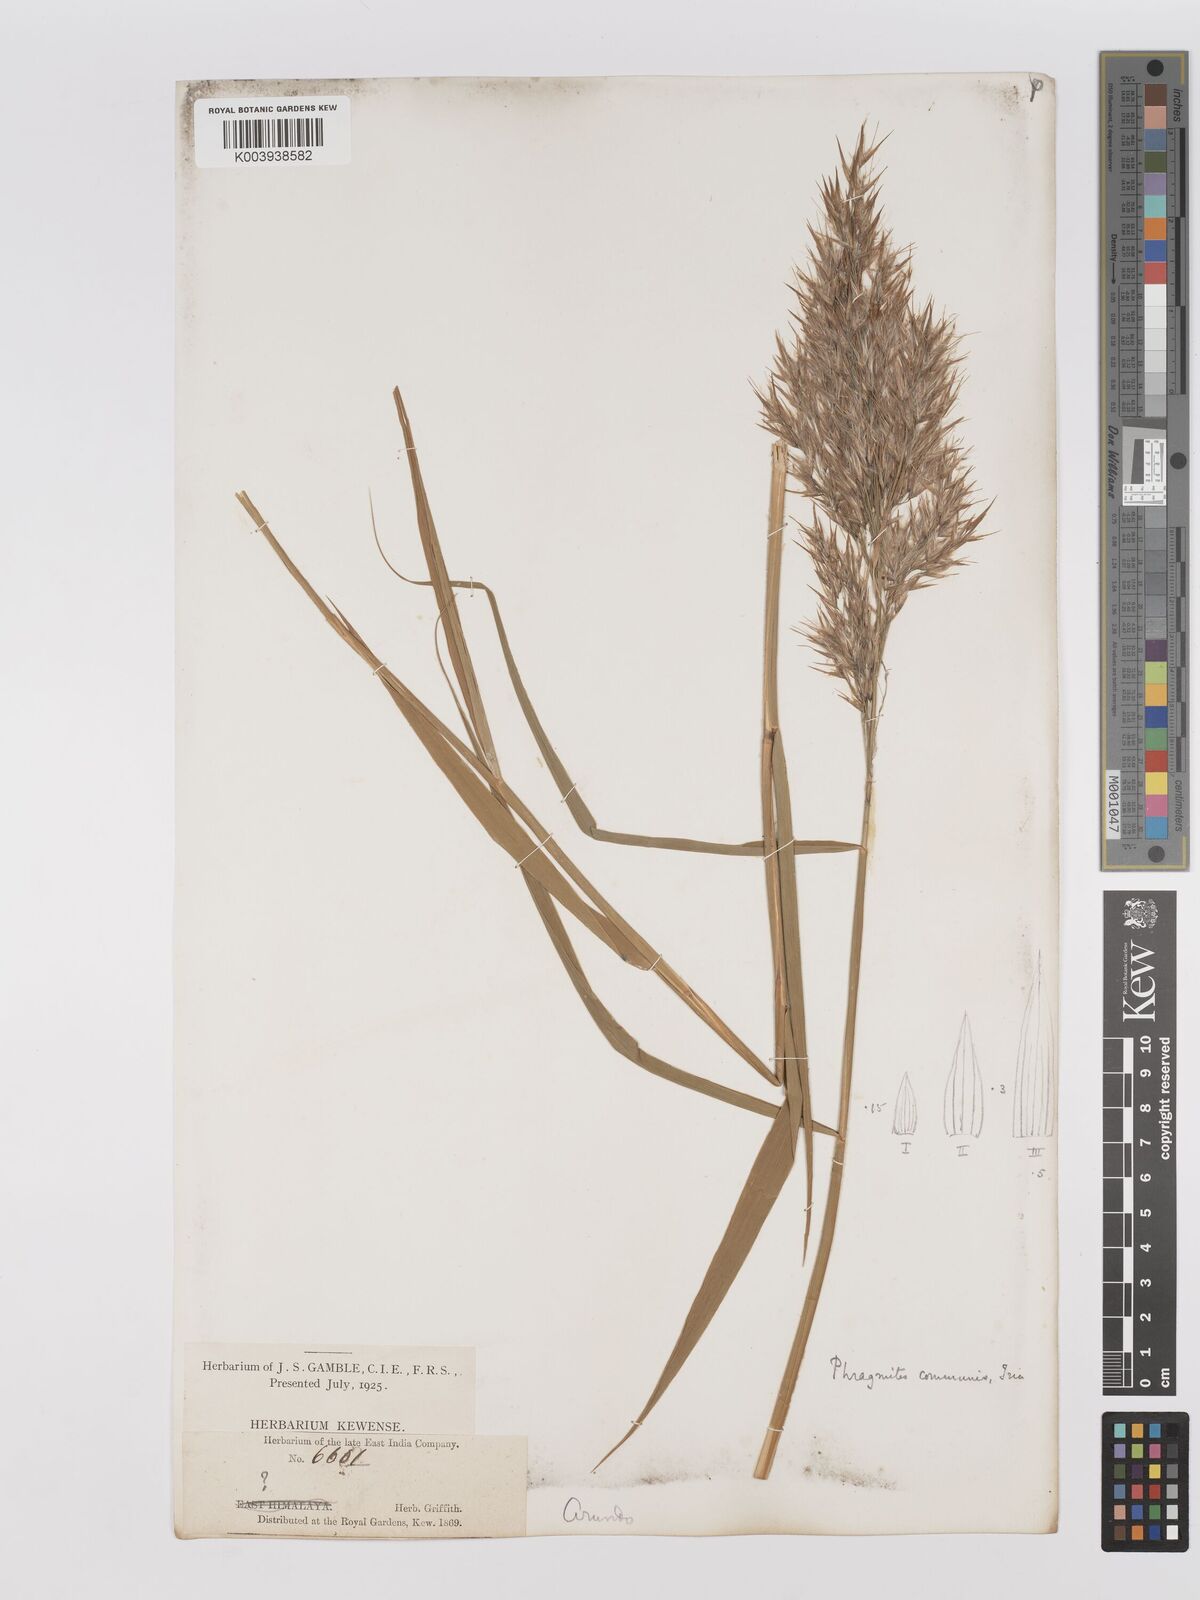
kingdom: Plantae
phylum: Tracheophyta
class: Liliopsida
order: Poales
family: Poaceae
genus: Phragmites
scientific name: Phragmites australis
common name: Common reed
